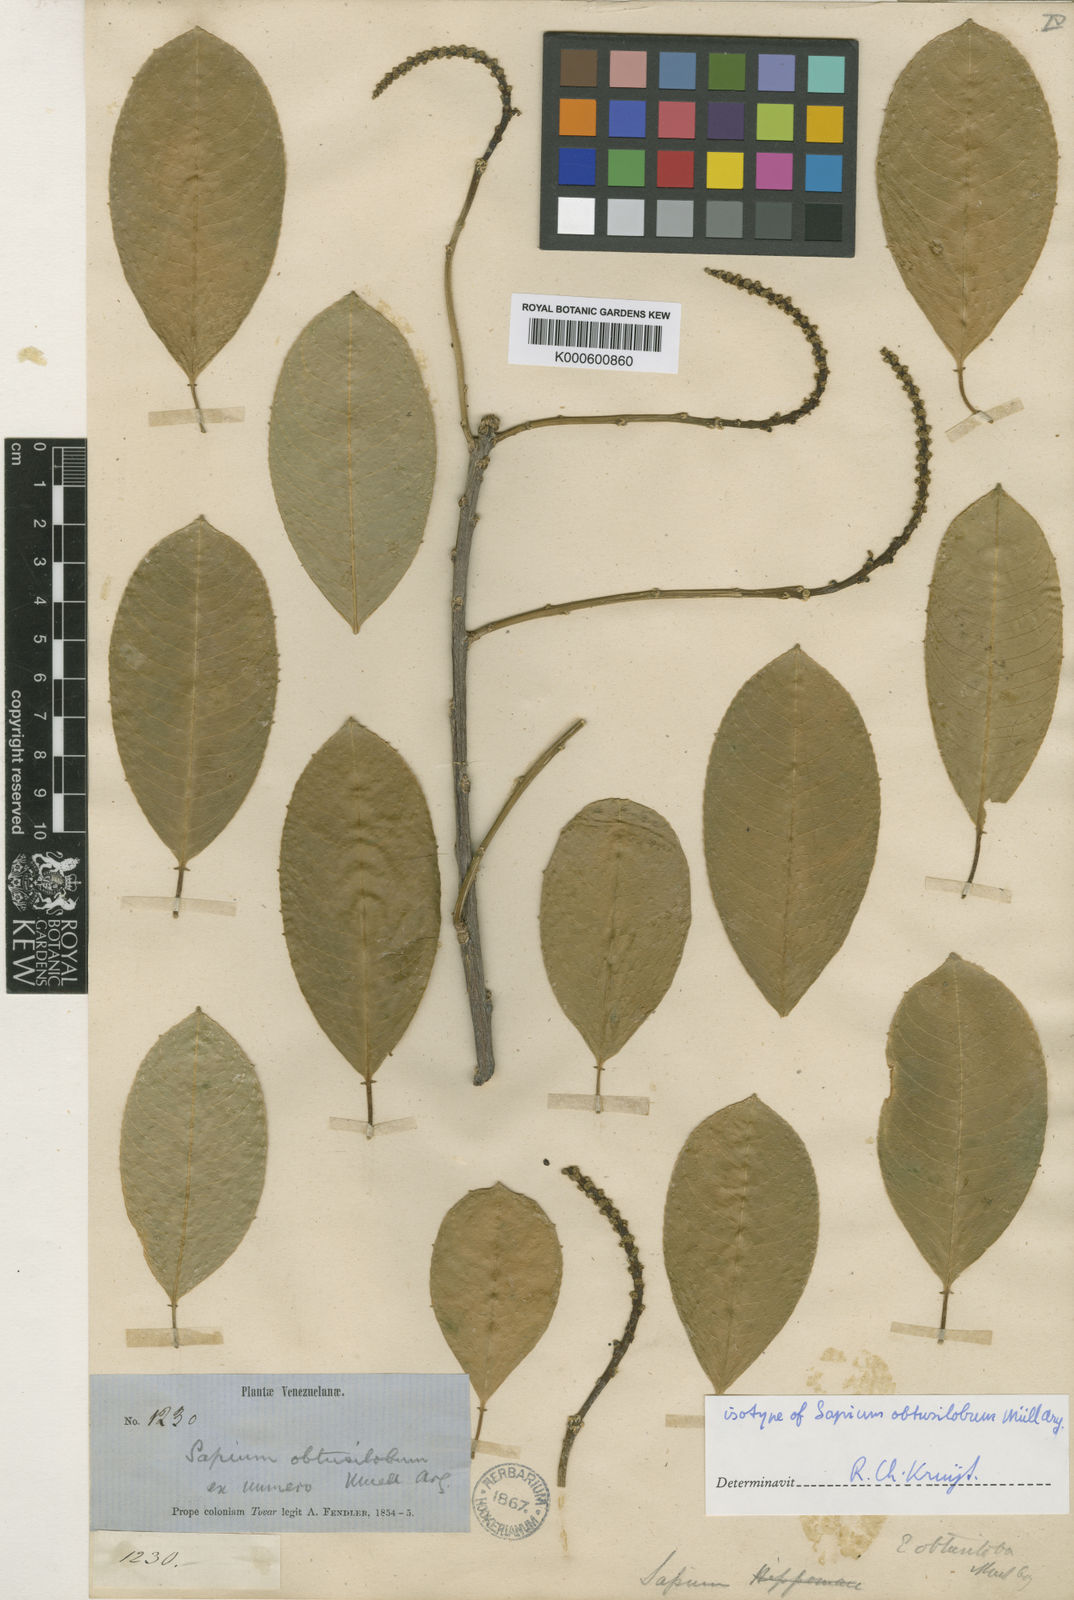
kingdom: Plantae
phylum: Tracheophyta
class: Magnoliopsida
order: Malpighiales
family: Euphorbiaceae
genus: Sapium
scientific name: Sapium
